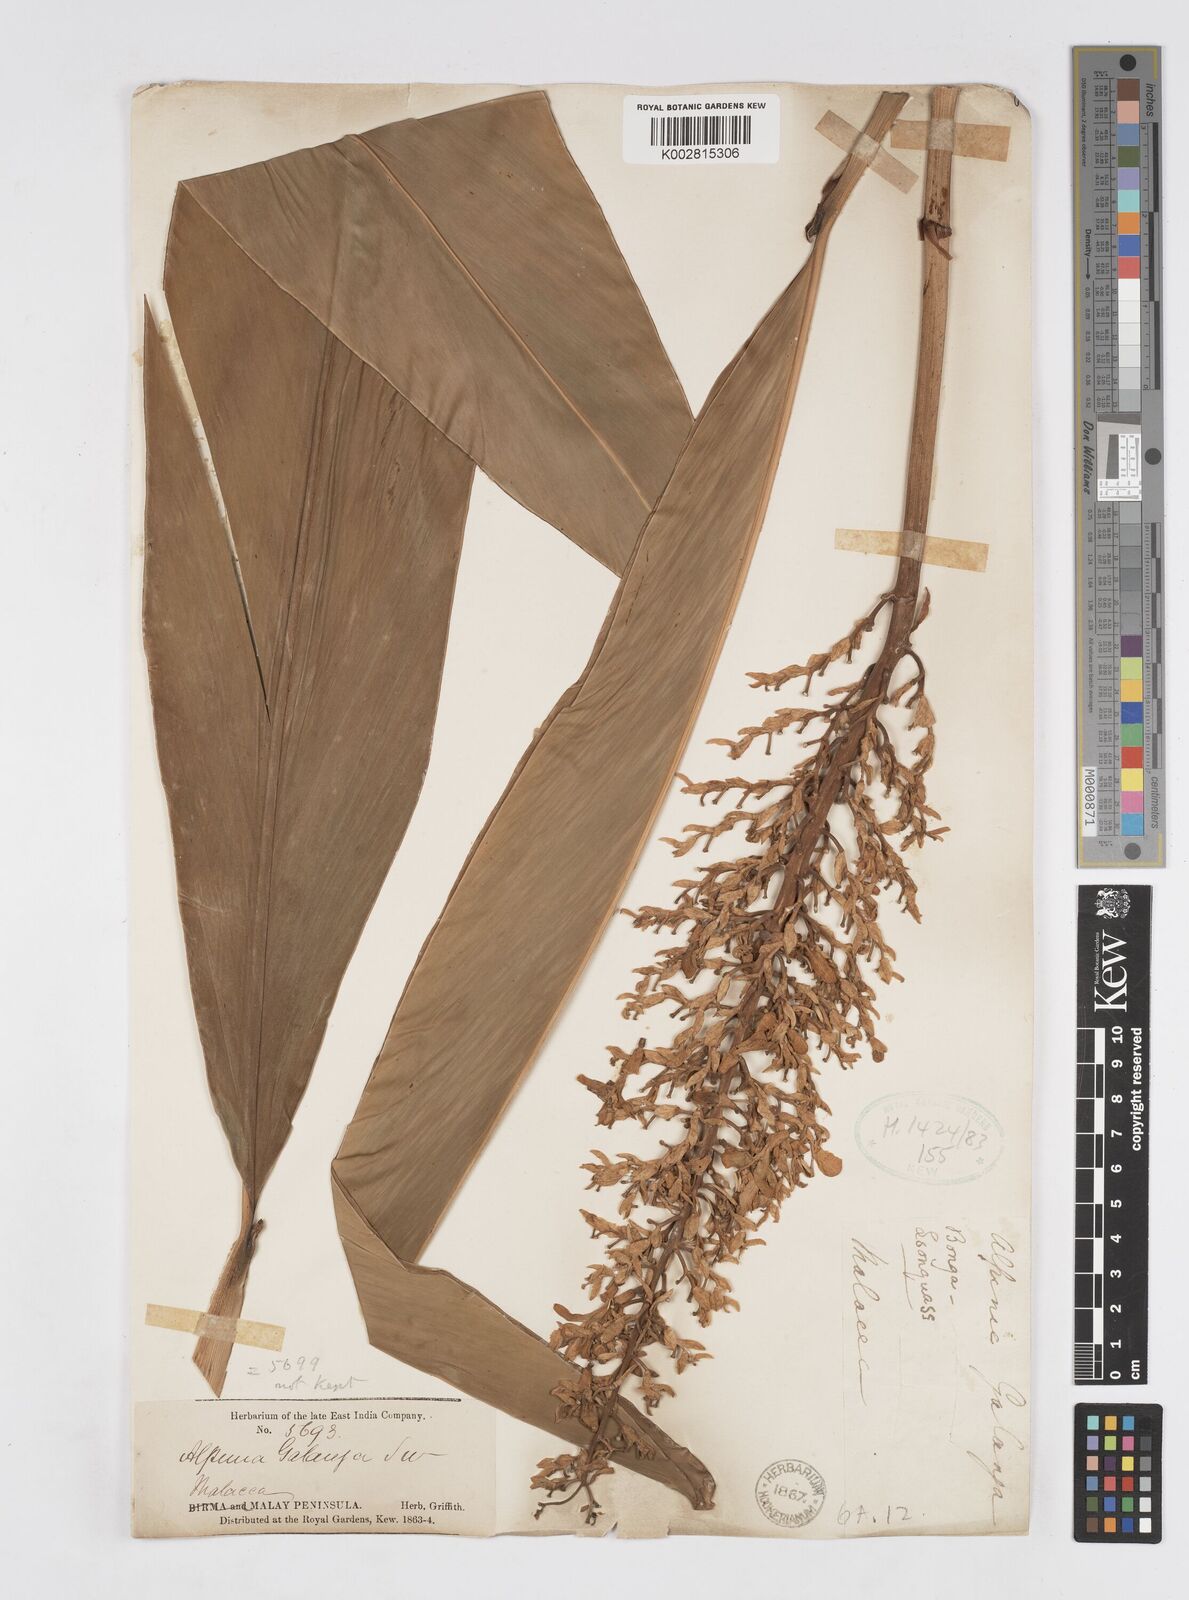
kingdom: Plantae
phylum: Tracheophyta
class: Liliopsida
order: Zingiberales
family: Zingiberaceae
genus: Alpinia
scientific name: Alpinia galanga
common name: Siamese-ginger
